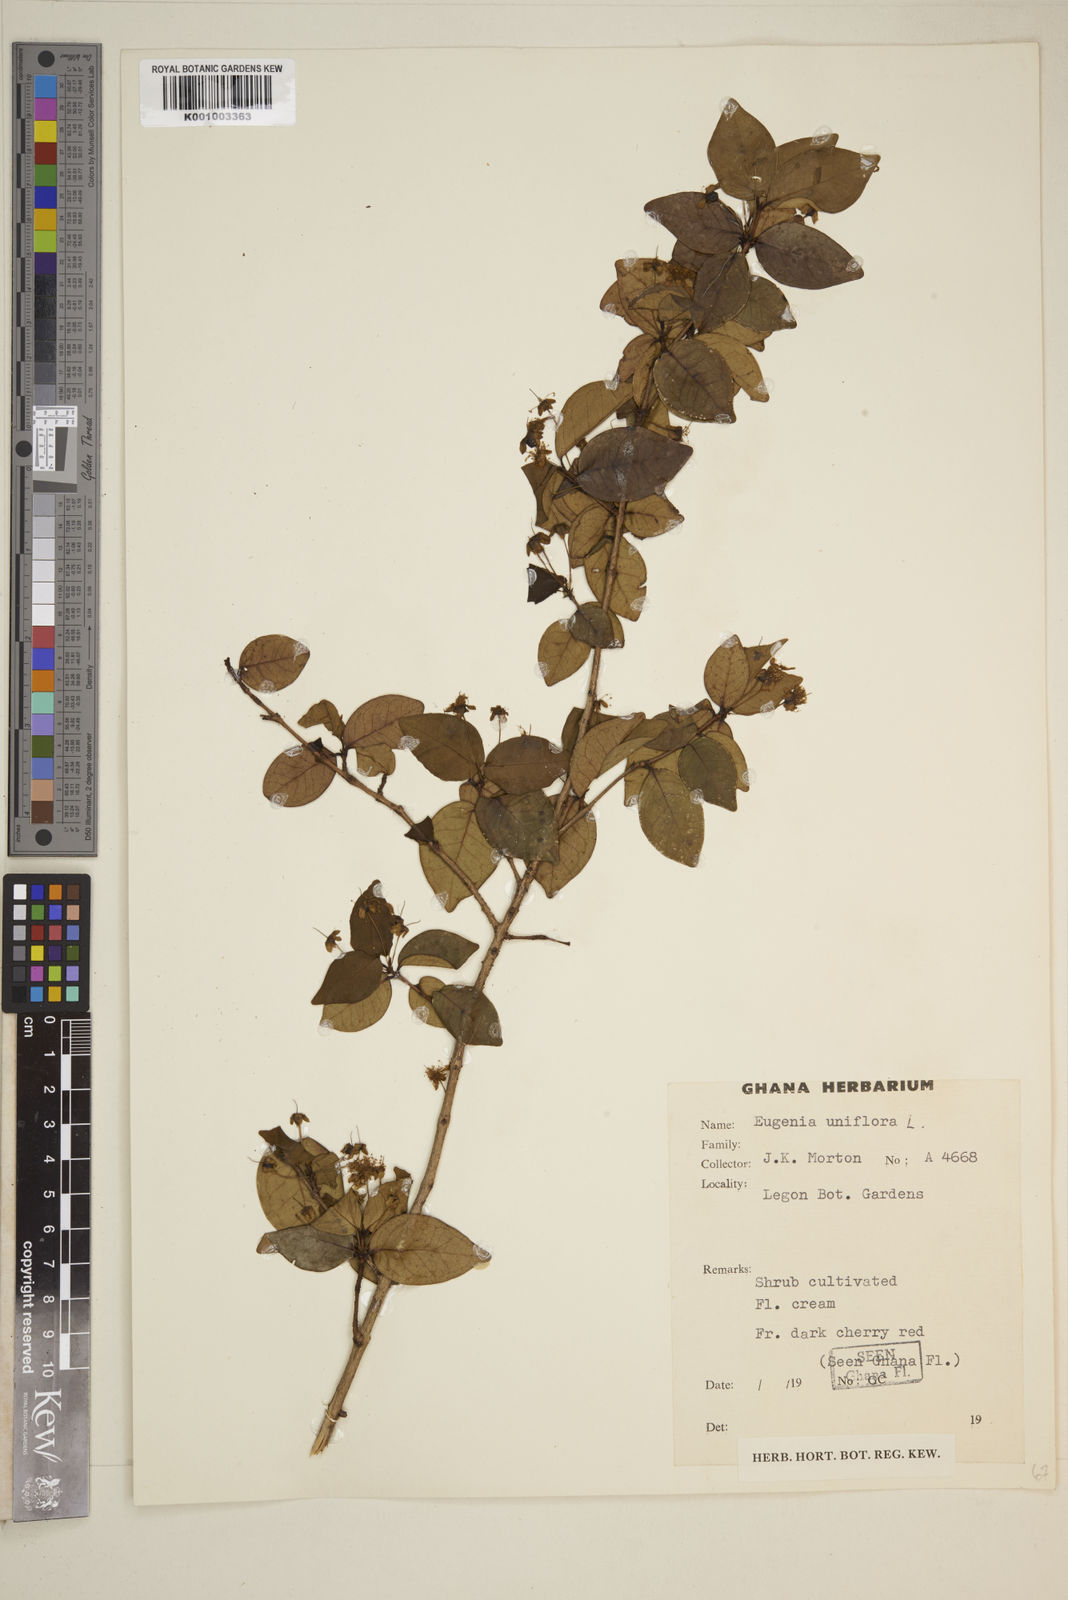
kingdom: Plantae
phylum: Tracheophyta
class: Magnoliopsida
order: Myrtales
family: Myrtaceae
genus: Eugenia
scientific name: Eugenia uniflora
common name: Surinam cherry
